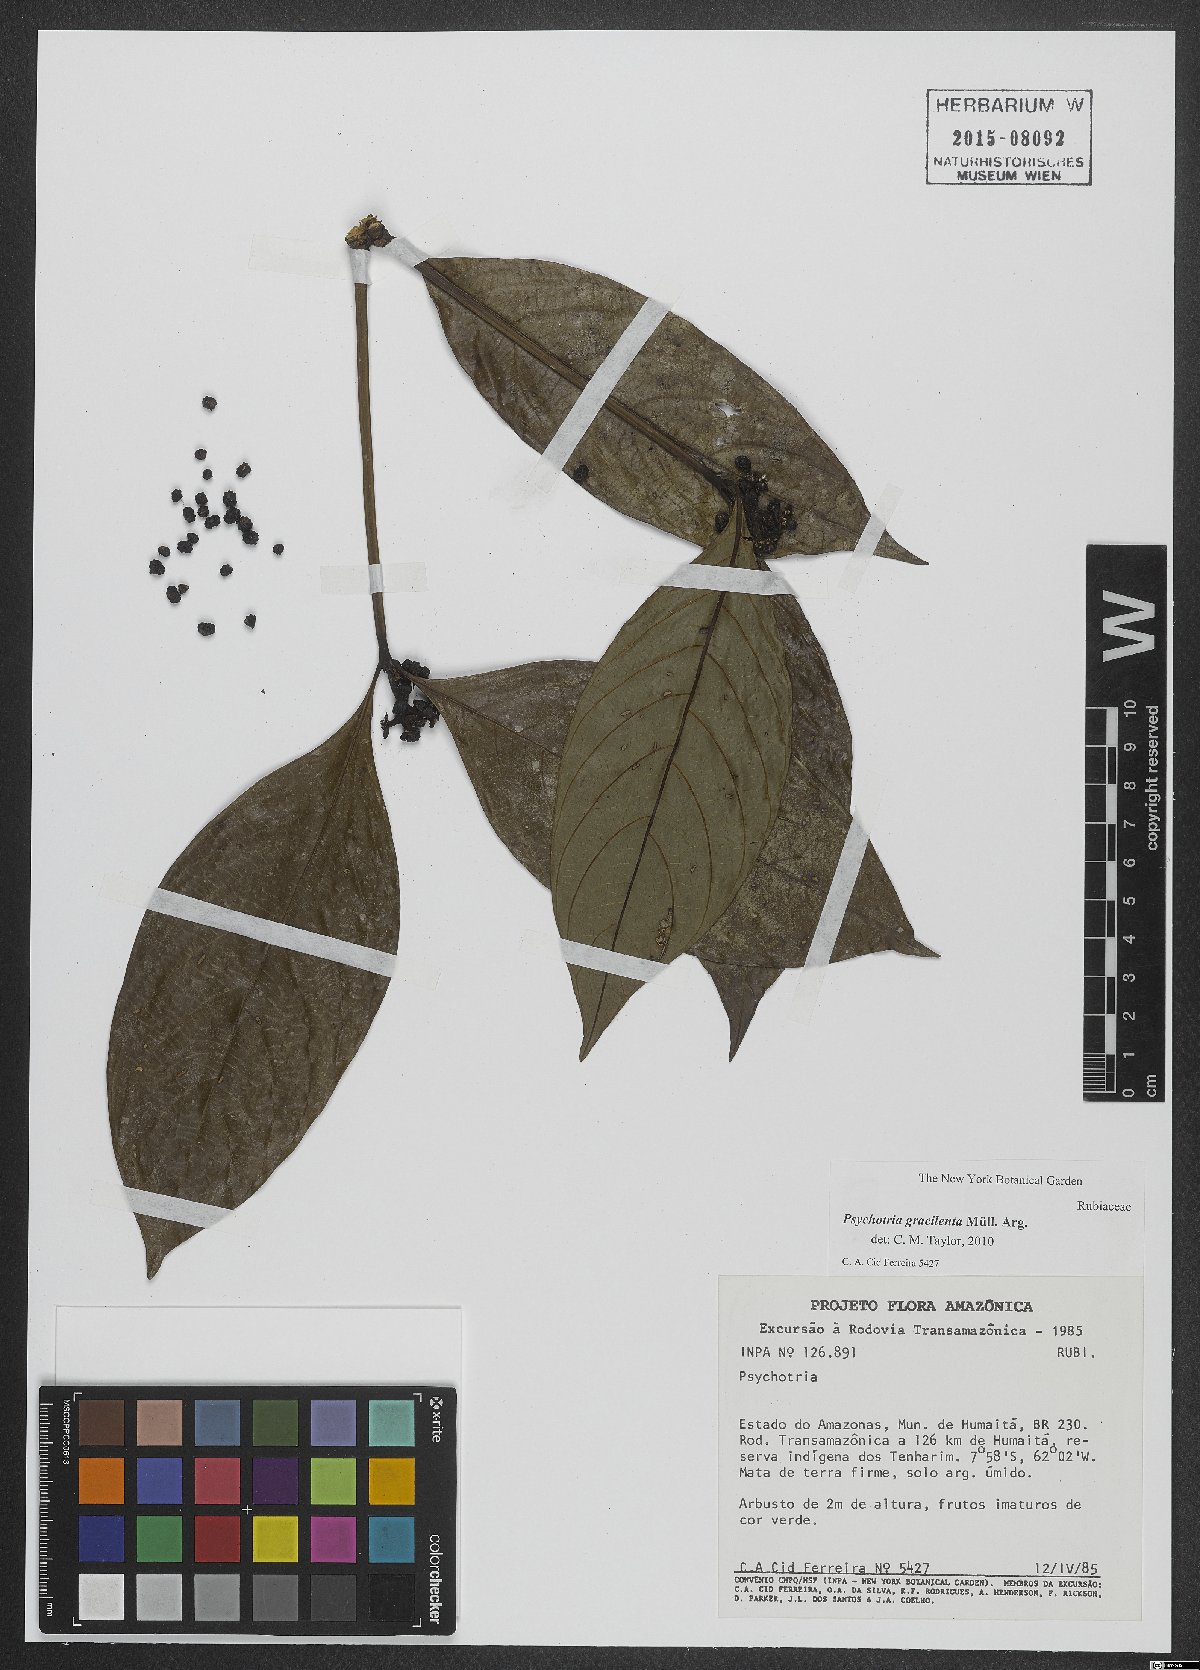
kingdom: Plantae
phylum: Tracheophyta
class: Magnoliopsida
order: Gentianales
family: Rubiaceae
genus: Palicourea
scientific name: Palicourea dichotoma
